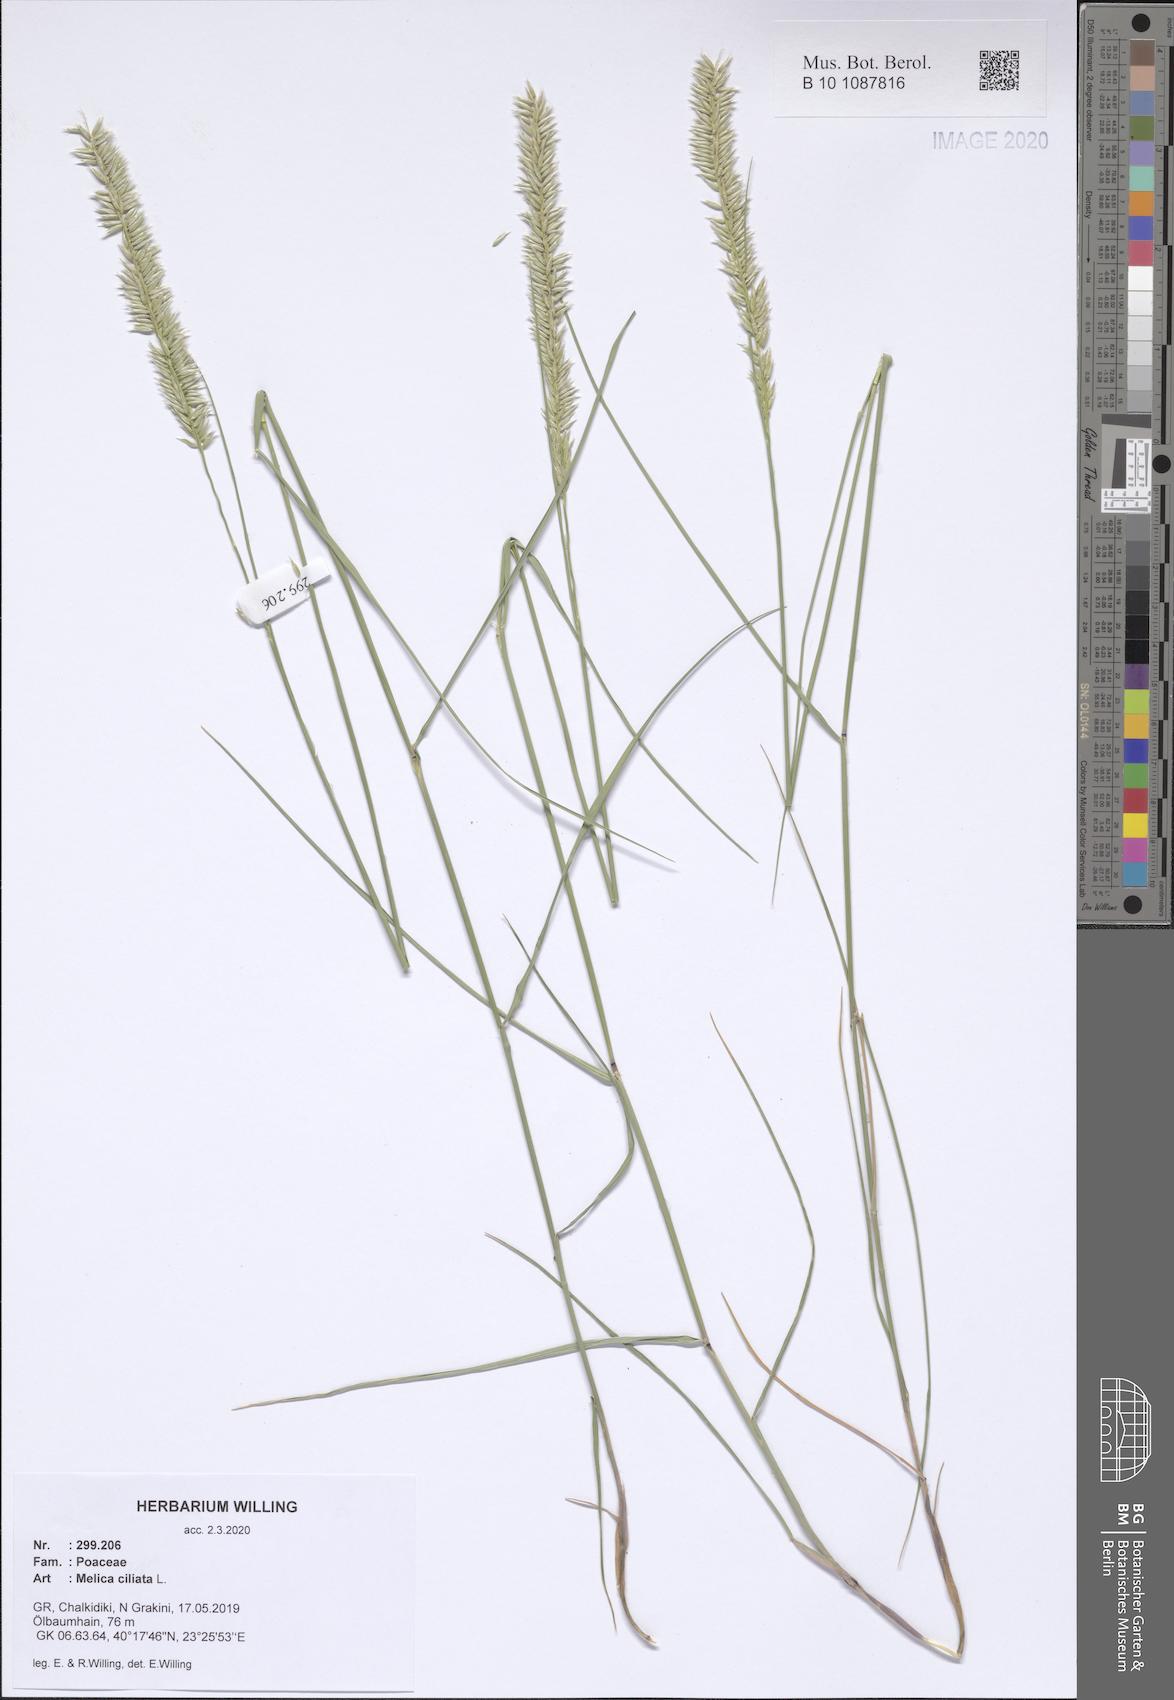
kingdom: Plantae
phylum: Tracheophyta
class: Liliopsida
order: Poales
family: Poaceae
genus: Melica
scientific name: Melica ciliata
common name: Hairy melicgrass
